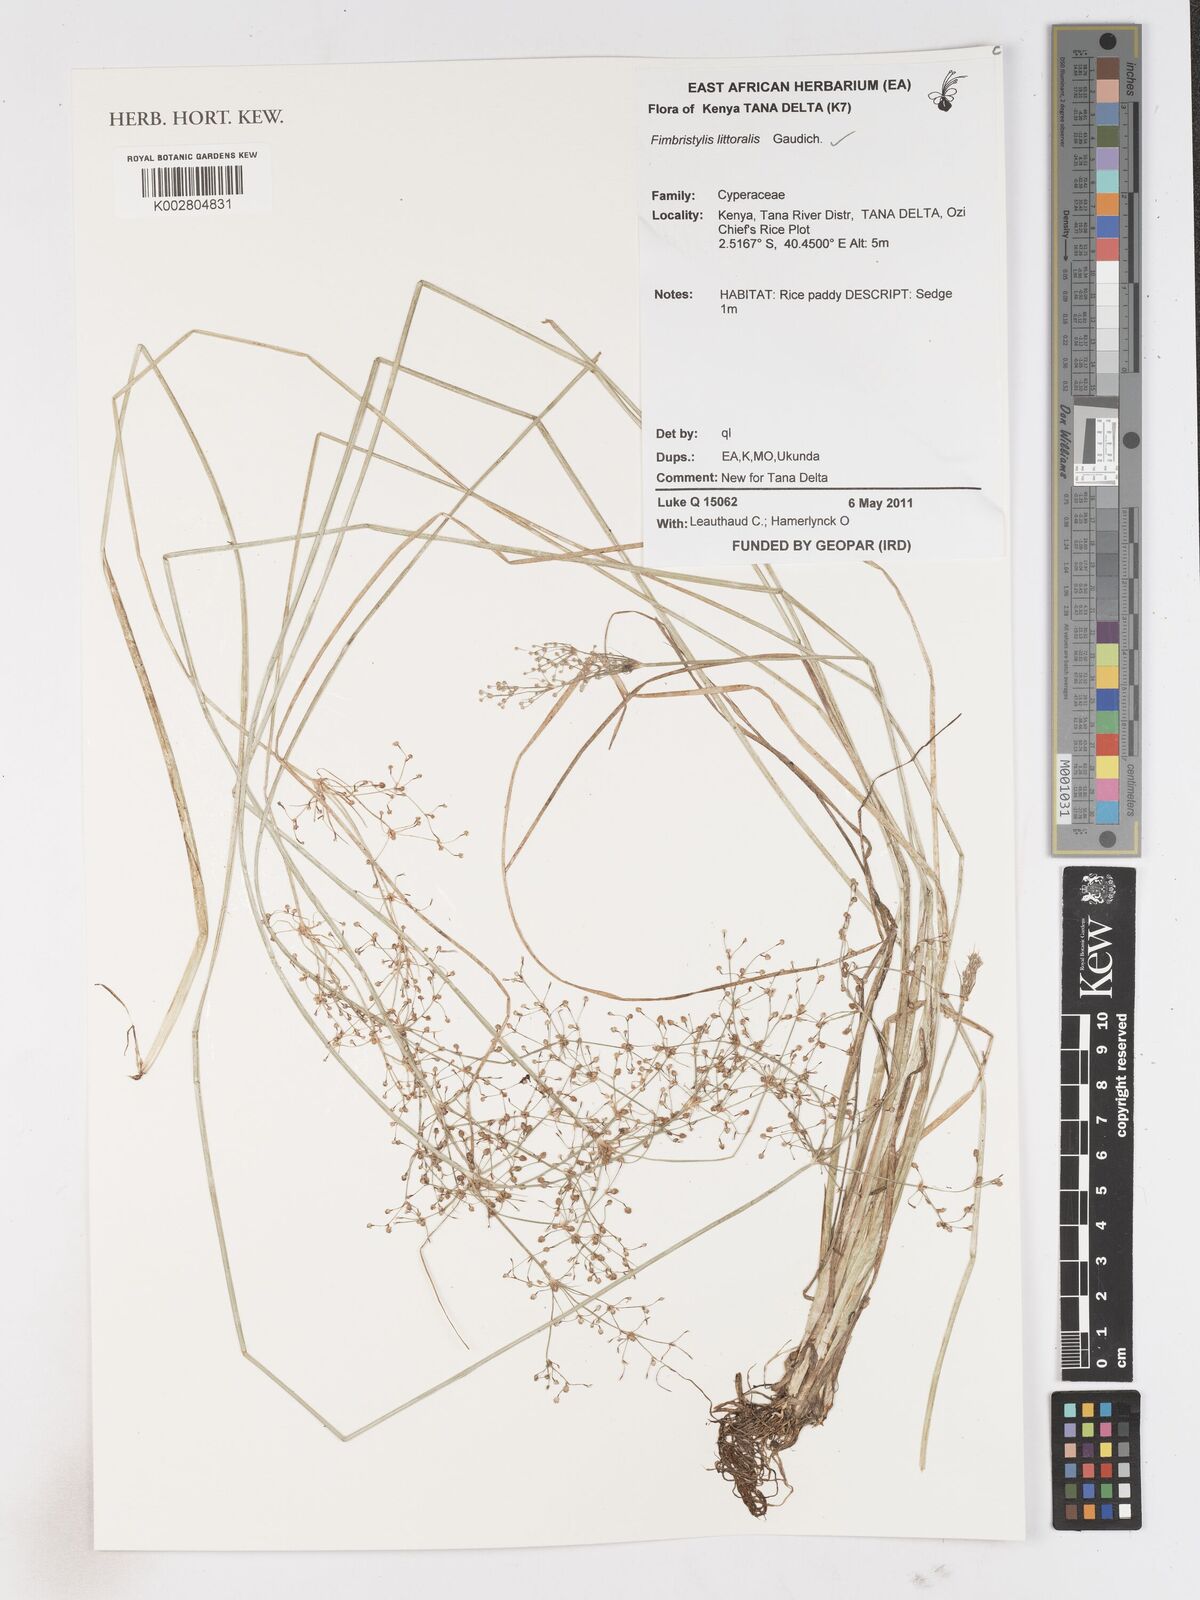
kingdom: Plantae
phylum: Tracheophyta
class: Liliopsida
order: Poales
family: Cyperaceae
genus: Fimbristylis
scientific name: Fimbristylis littoralis
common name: Fimbry
